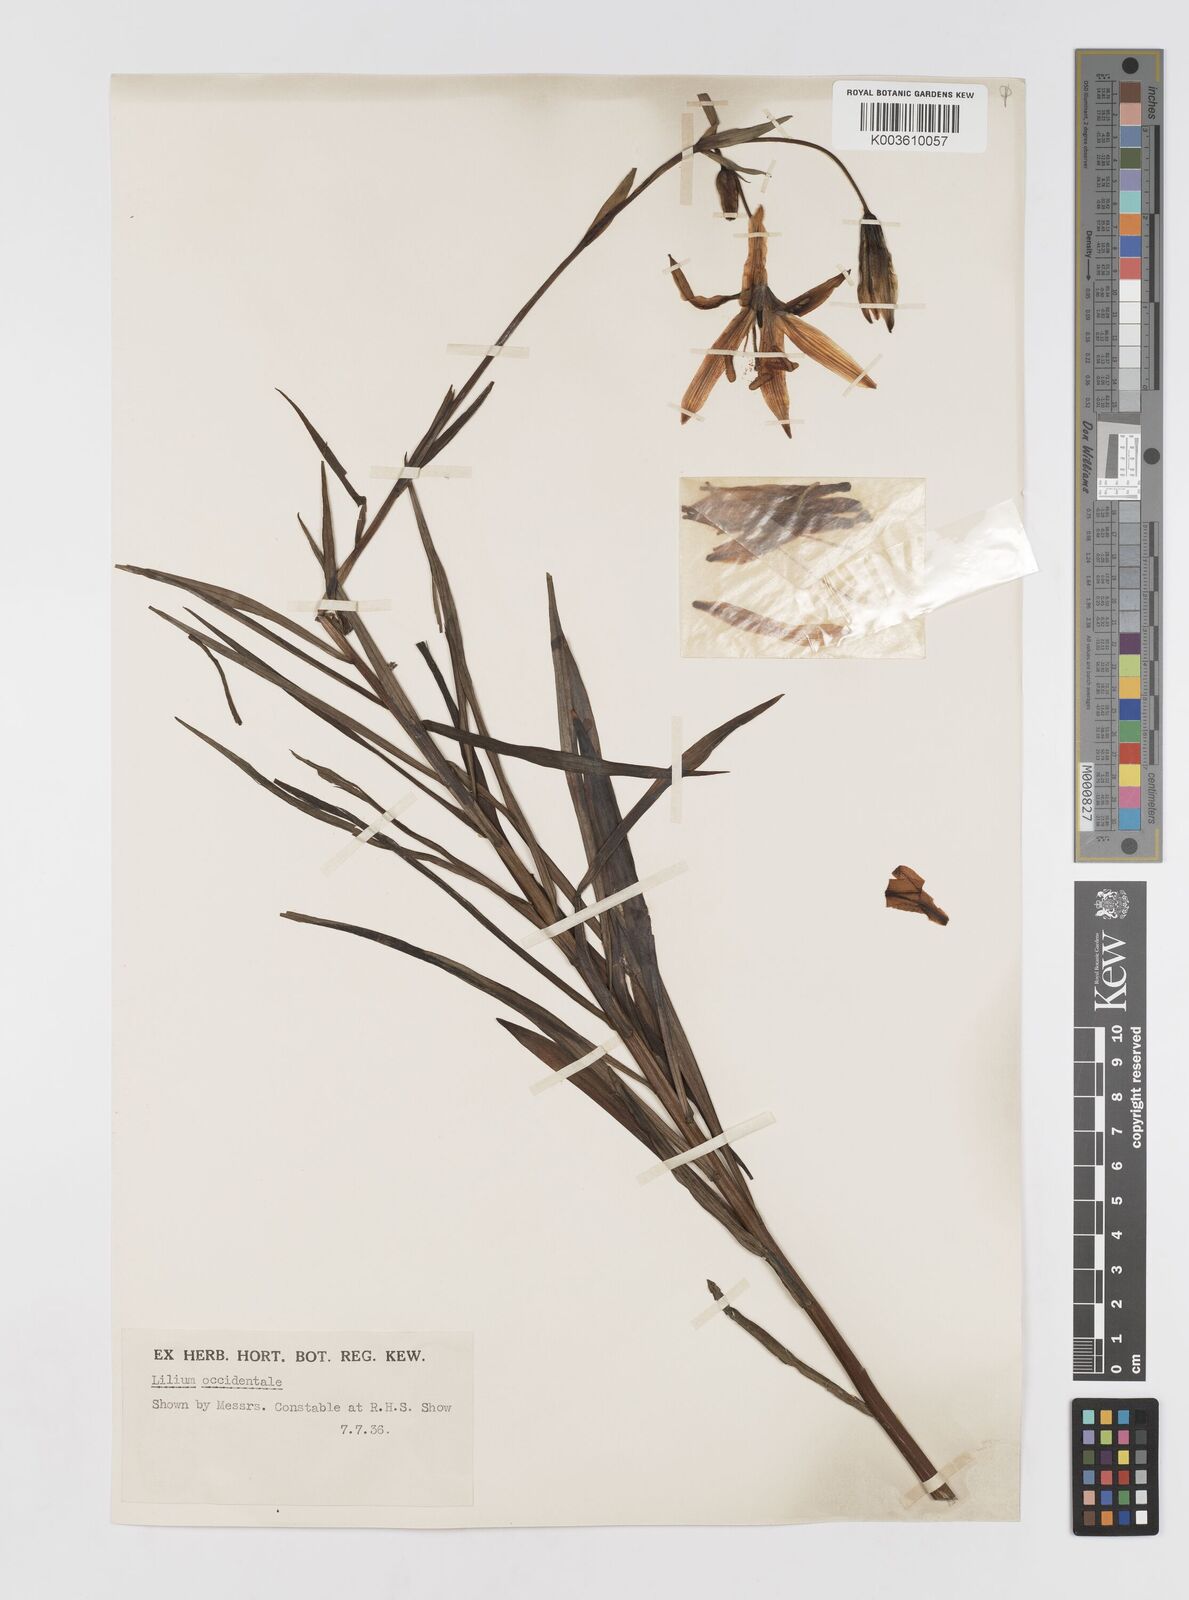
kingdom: Plantae
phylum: Tracheophyta
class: Liliopsida
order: Liliales
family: Liliaceae
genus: Lilium
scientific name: Lilium occidentale
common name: Eureka lily
